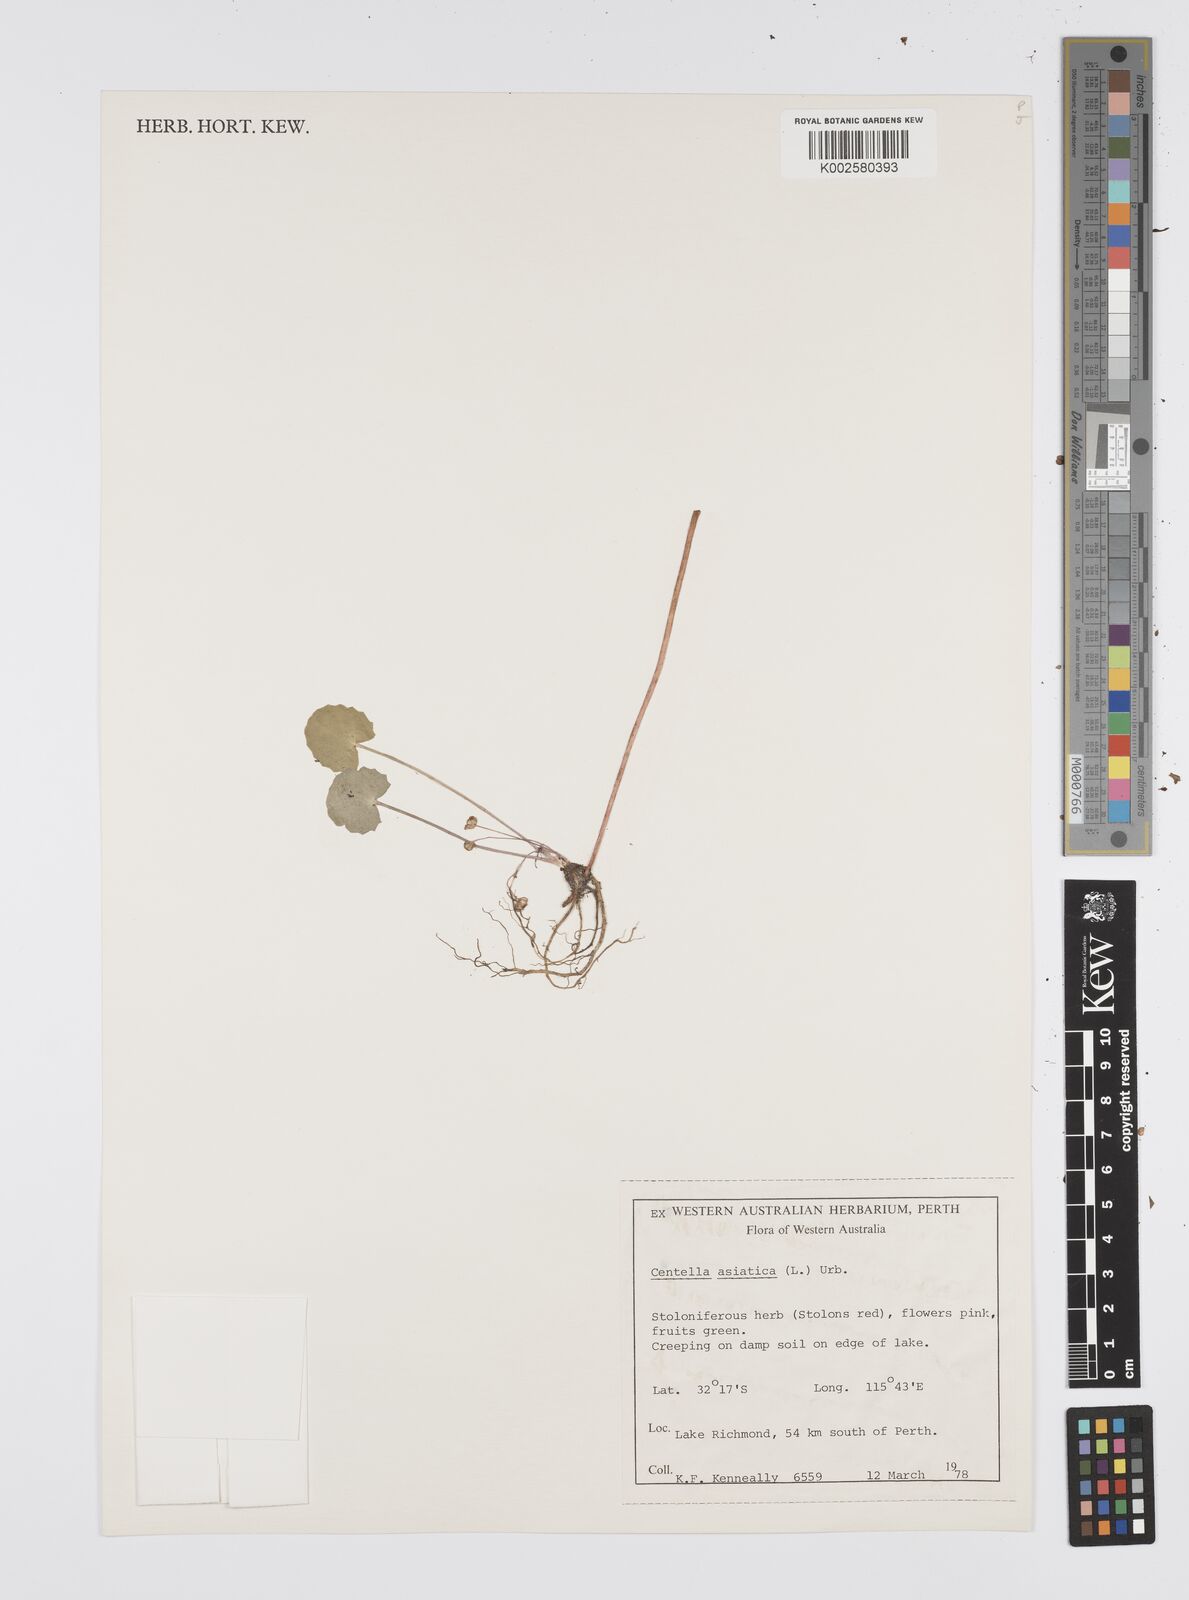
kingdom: Plantae
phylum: Tracheophyta
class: Magnoliopsida
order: Apiales
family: Apiaceae
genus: Centella
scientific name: Centella cordifolia
